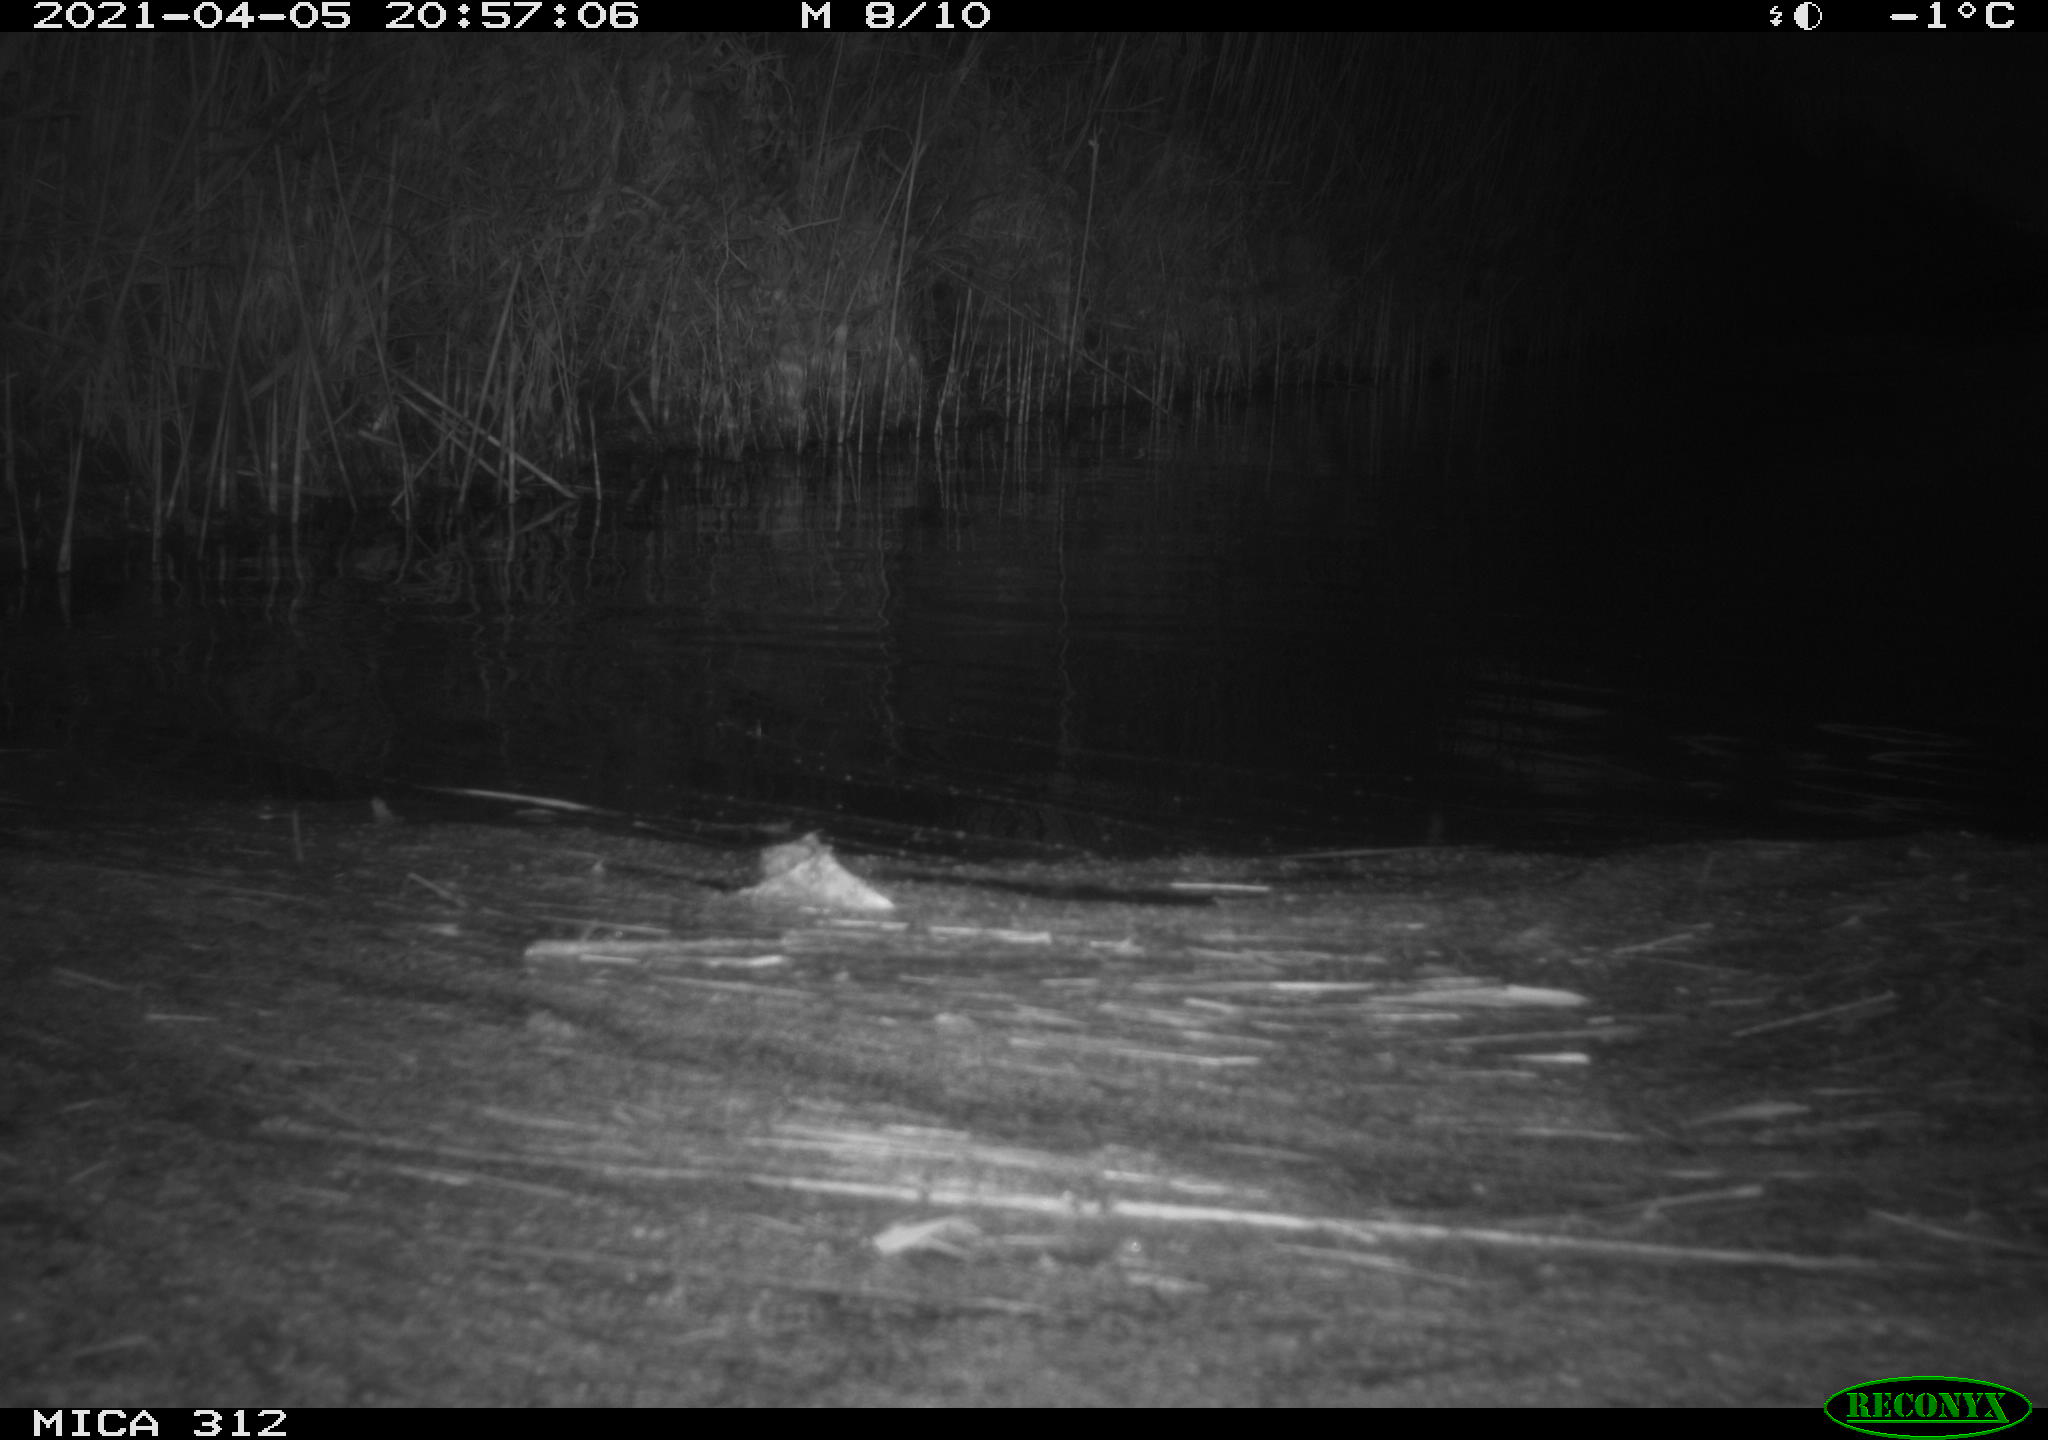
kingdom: Animalia
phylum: Chordata
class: Mammalia
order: Rodentia
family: Muridae
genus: Rattus
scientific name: Rattus norvegicus
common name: Brown rat
